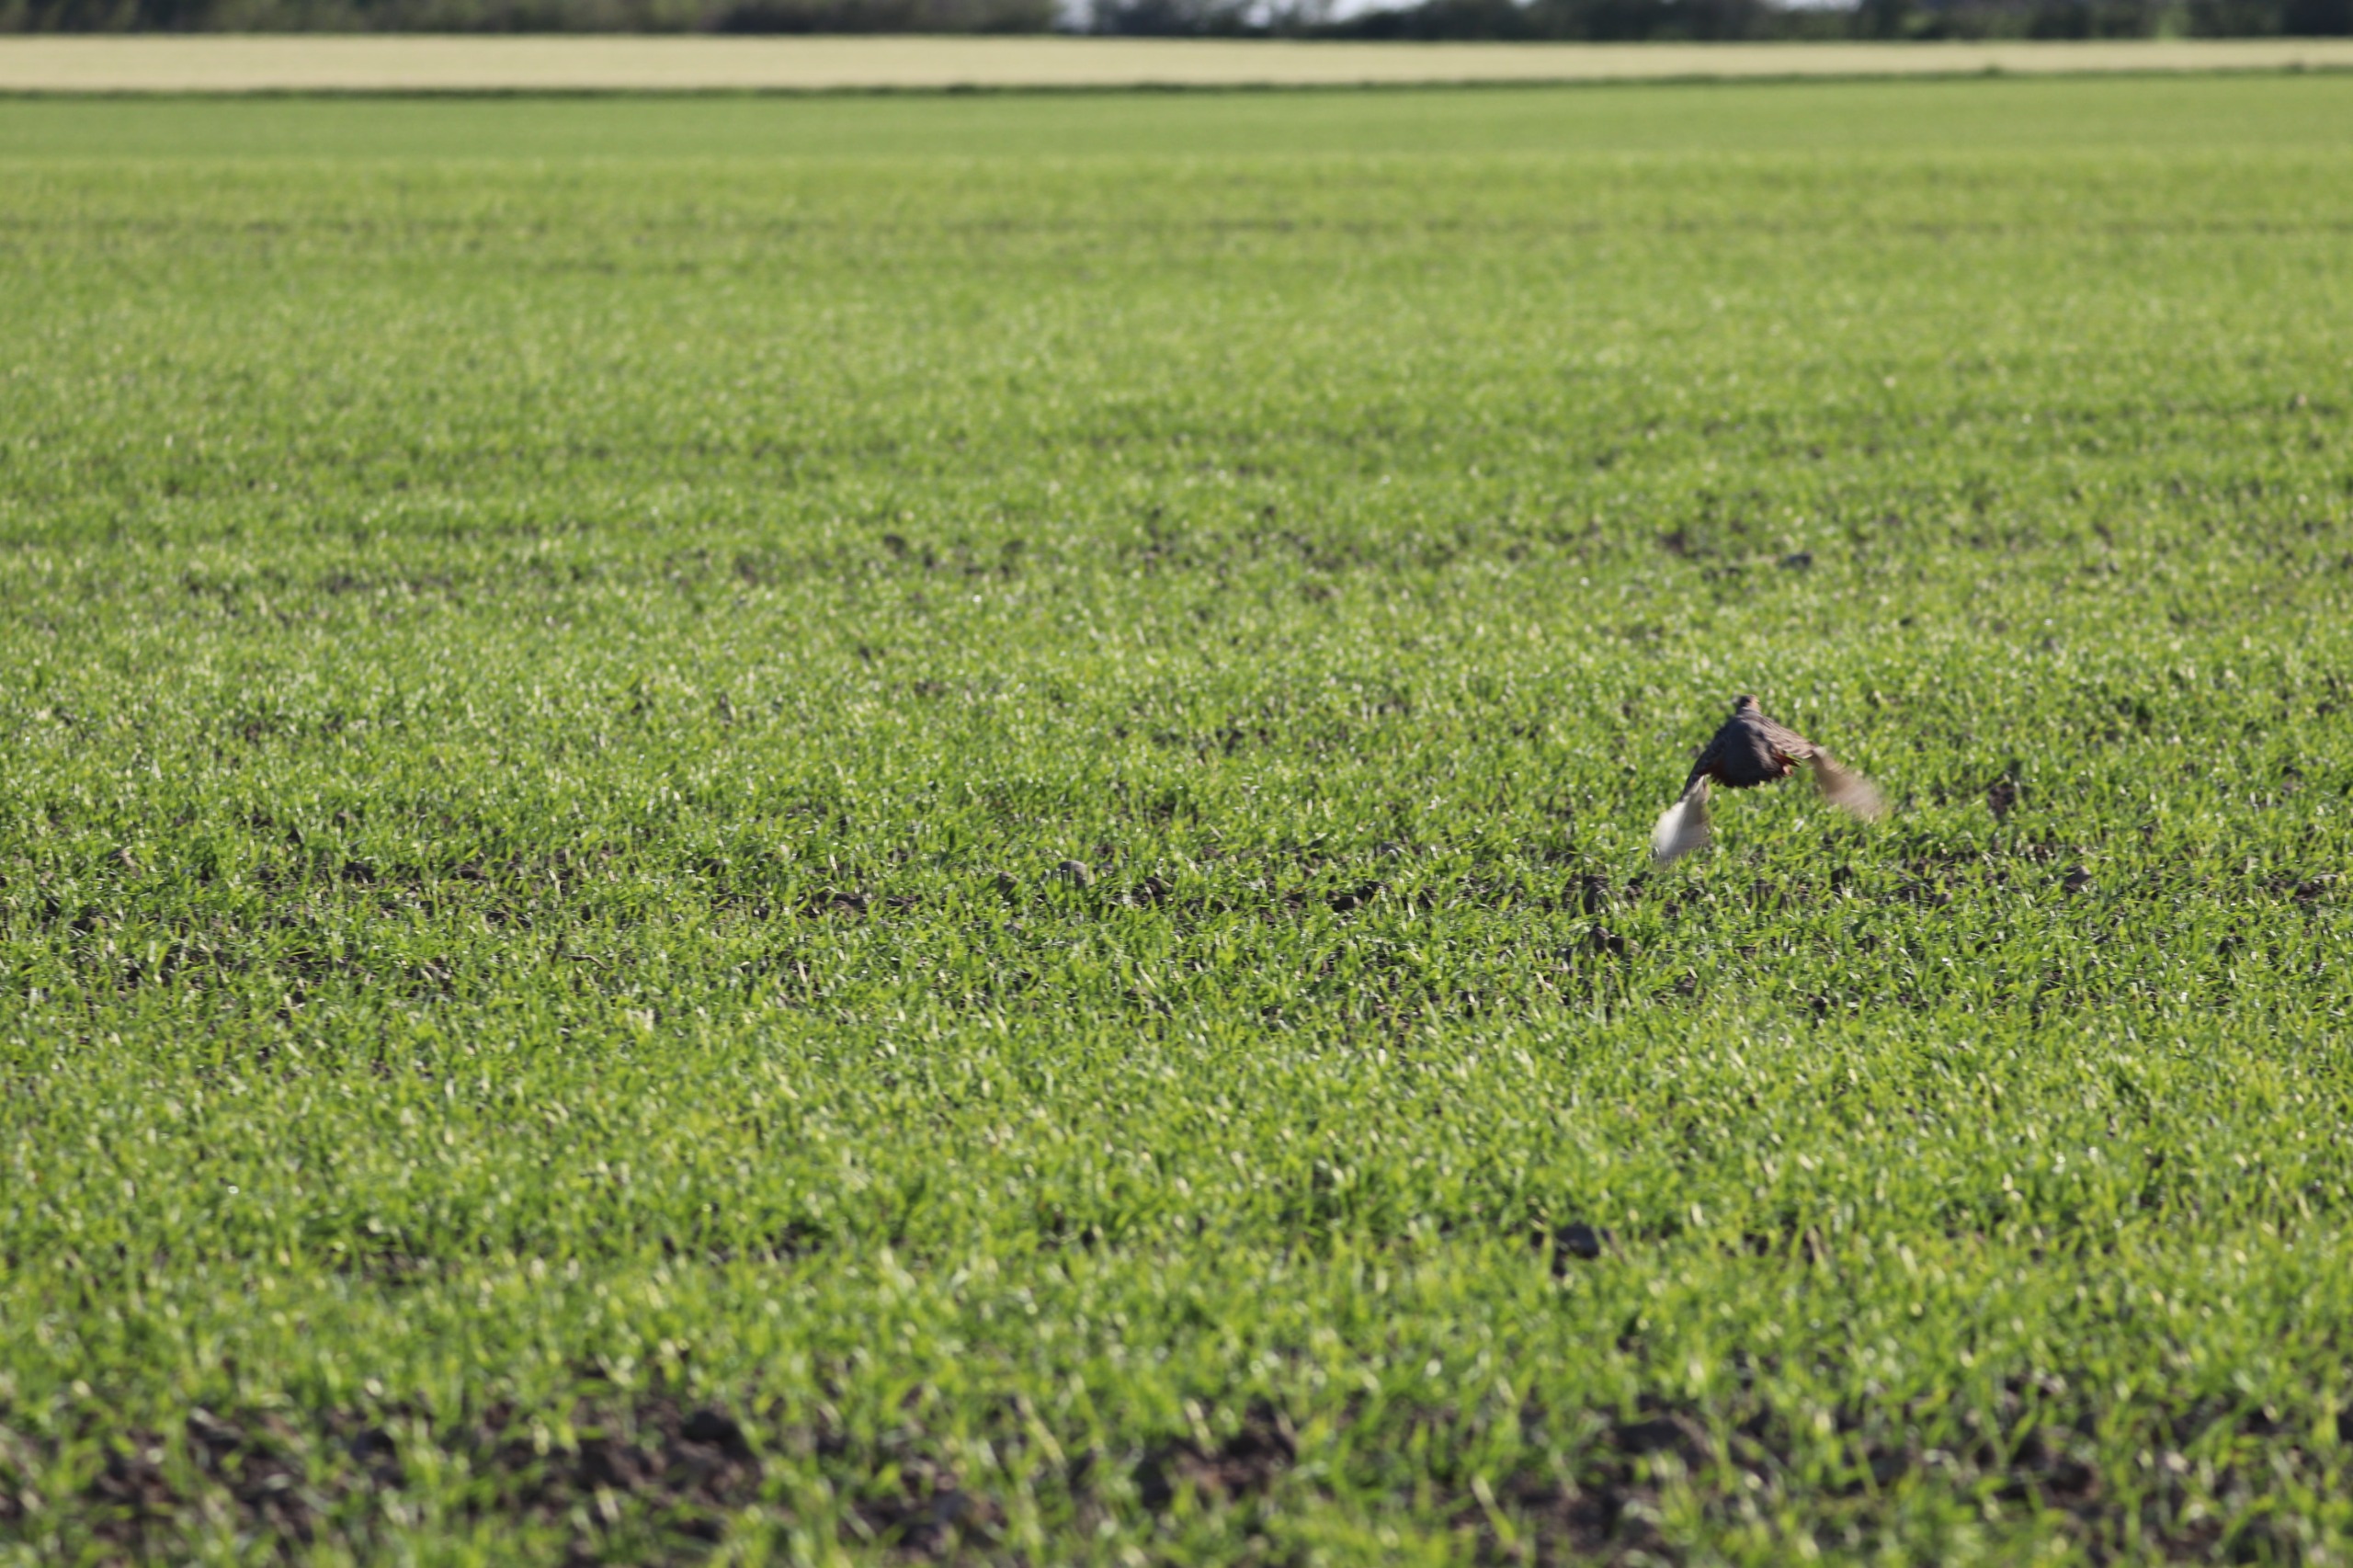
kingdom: Animalia
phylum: Chordata
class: Aves
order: Galliformes
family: Phasianidae
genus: Perdix
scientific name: Perdix perdix
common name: Agerhøne
